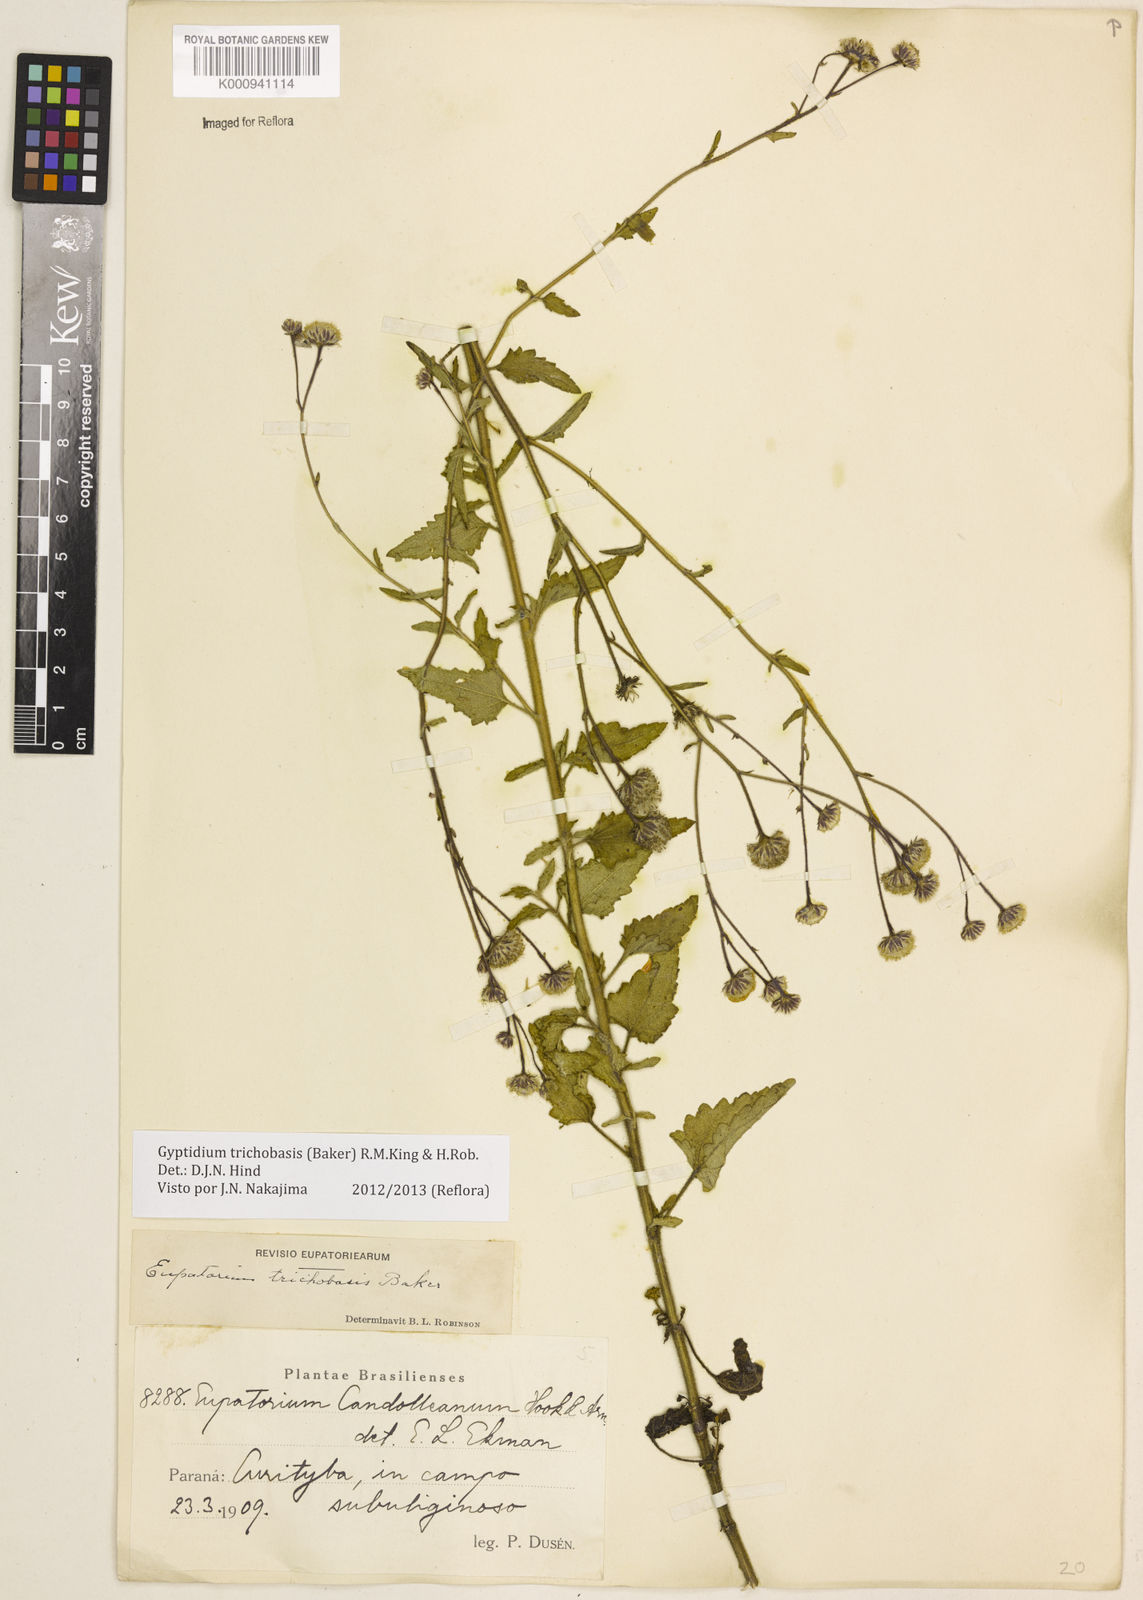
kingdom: Plantae
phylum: Tracheophyta
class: Magnoliopsida
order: Asterales
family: Asteraceae
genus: Gyptidium
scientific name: Gyptidium trichobasis
